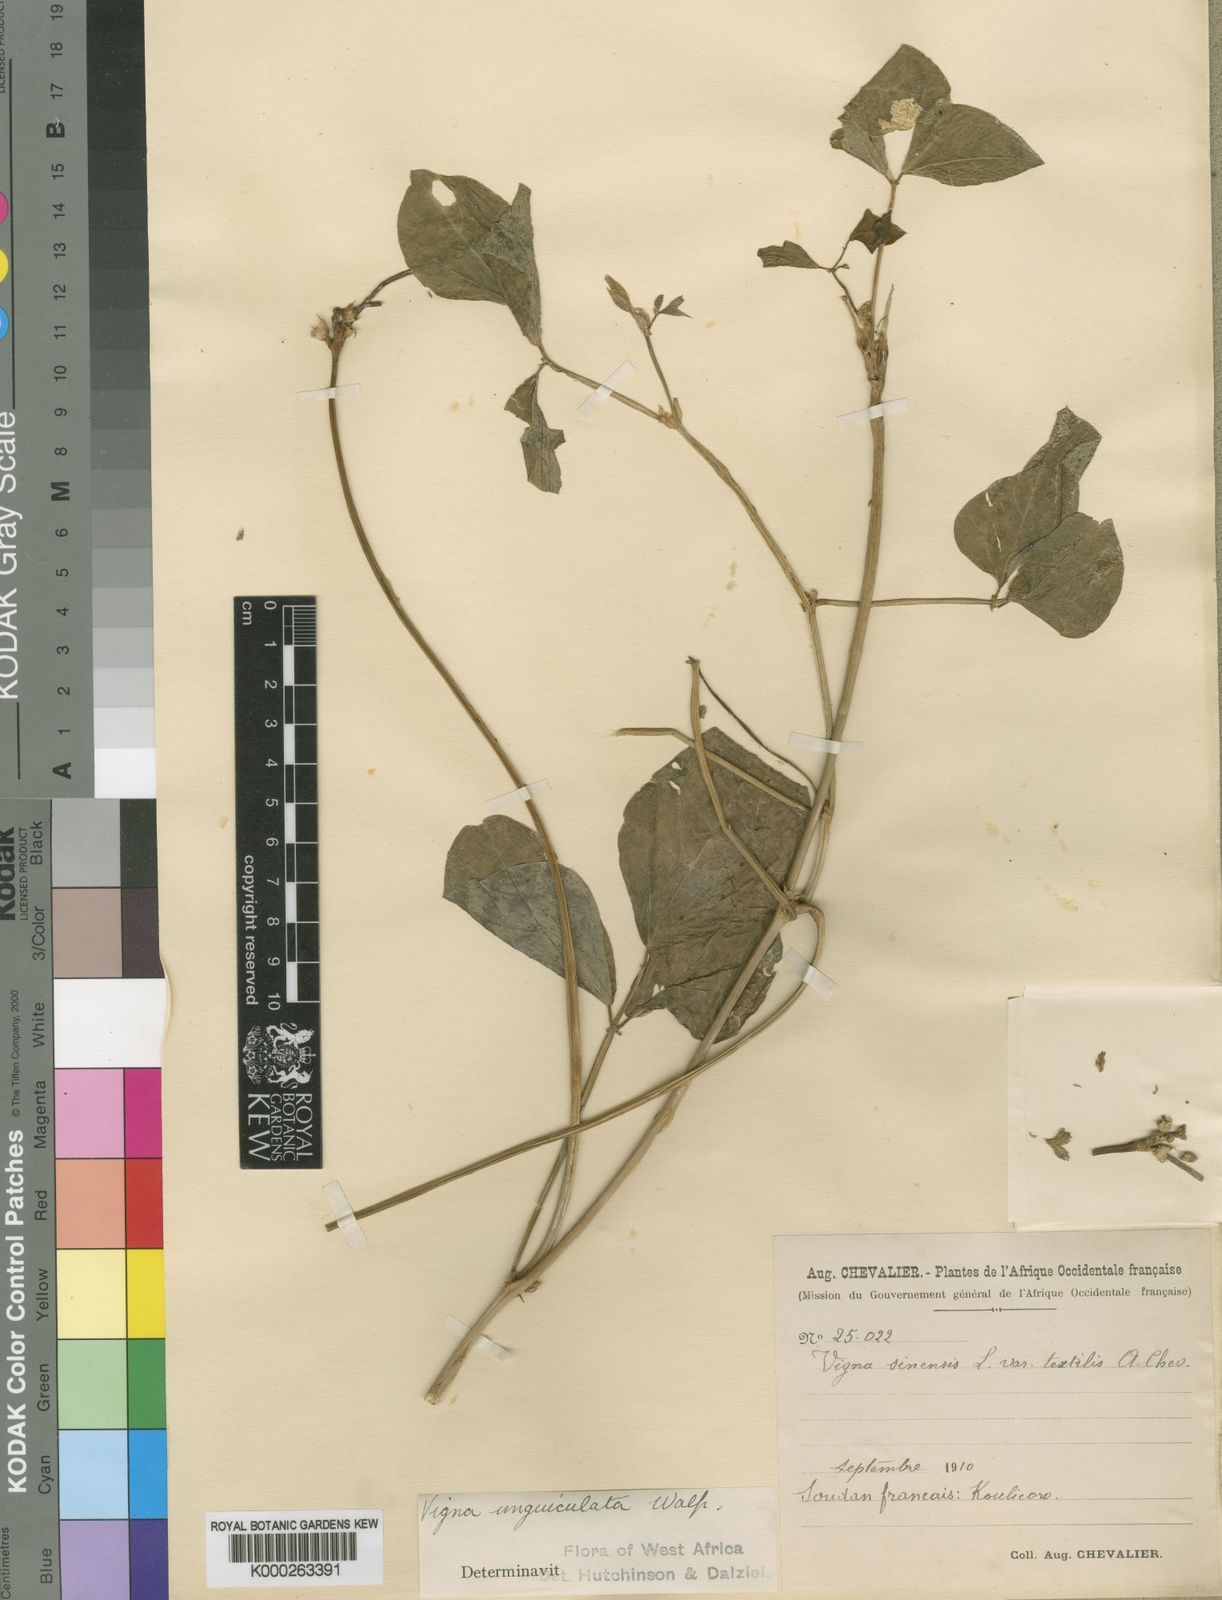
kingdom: Plantae
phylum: Tracheophyta
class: Magnoliopsida
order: Fabales
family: Fabaceae
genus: Vigna
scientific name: Vigna unguiculata
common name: Cowpea
